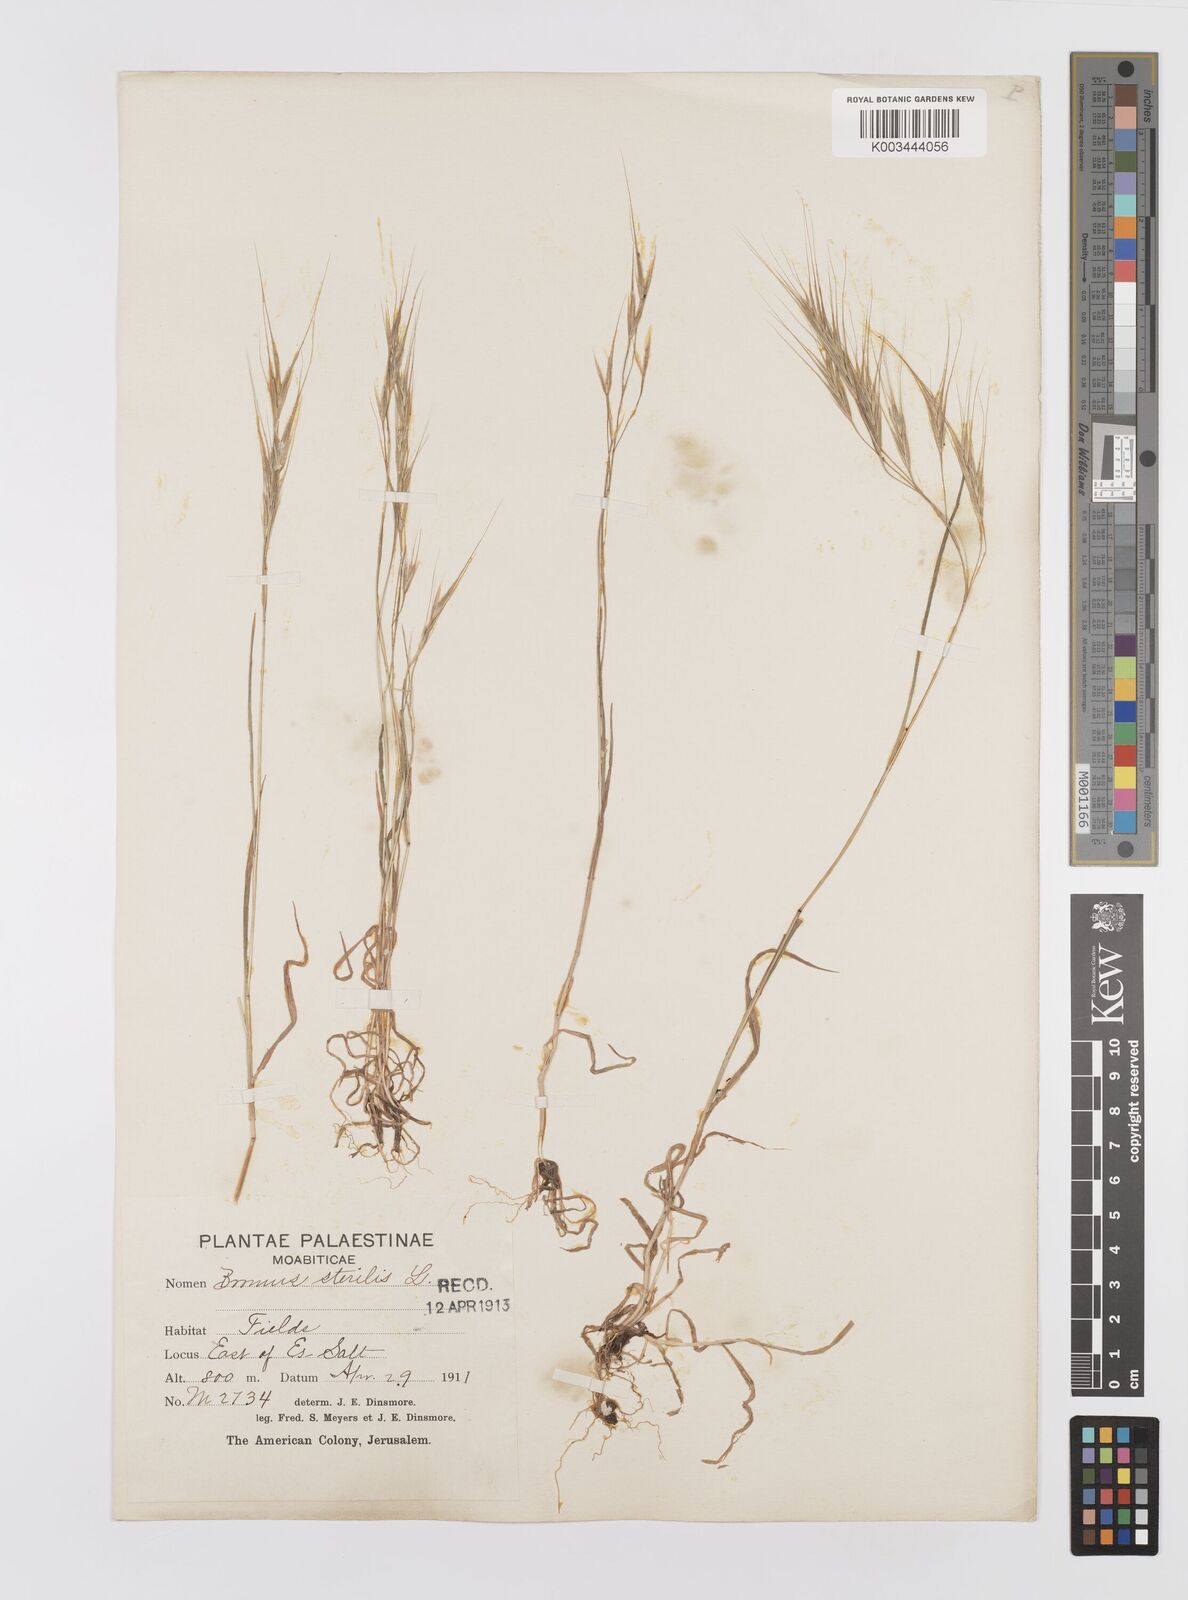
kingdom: Plantae
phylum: Tracheophyta
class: Liliopsida
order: Poales
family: Poaceae
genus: Bromus
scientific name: Bromus sterilis
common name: Poverty brome
